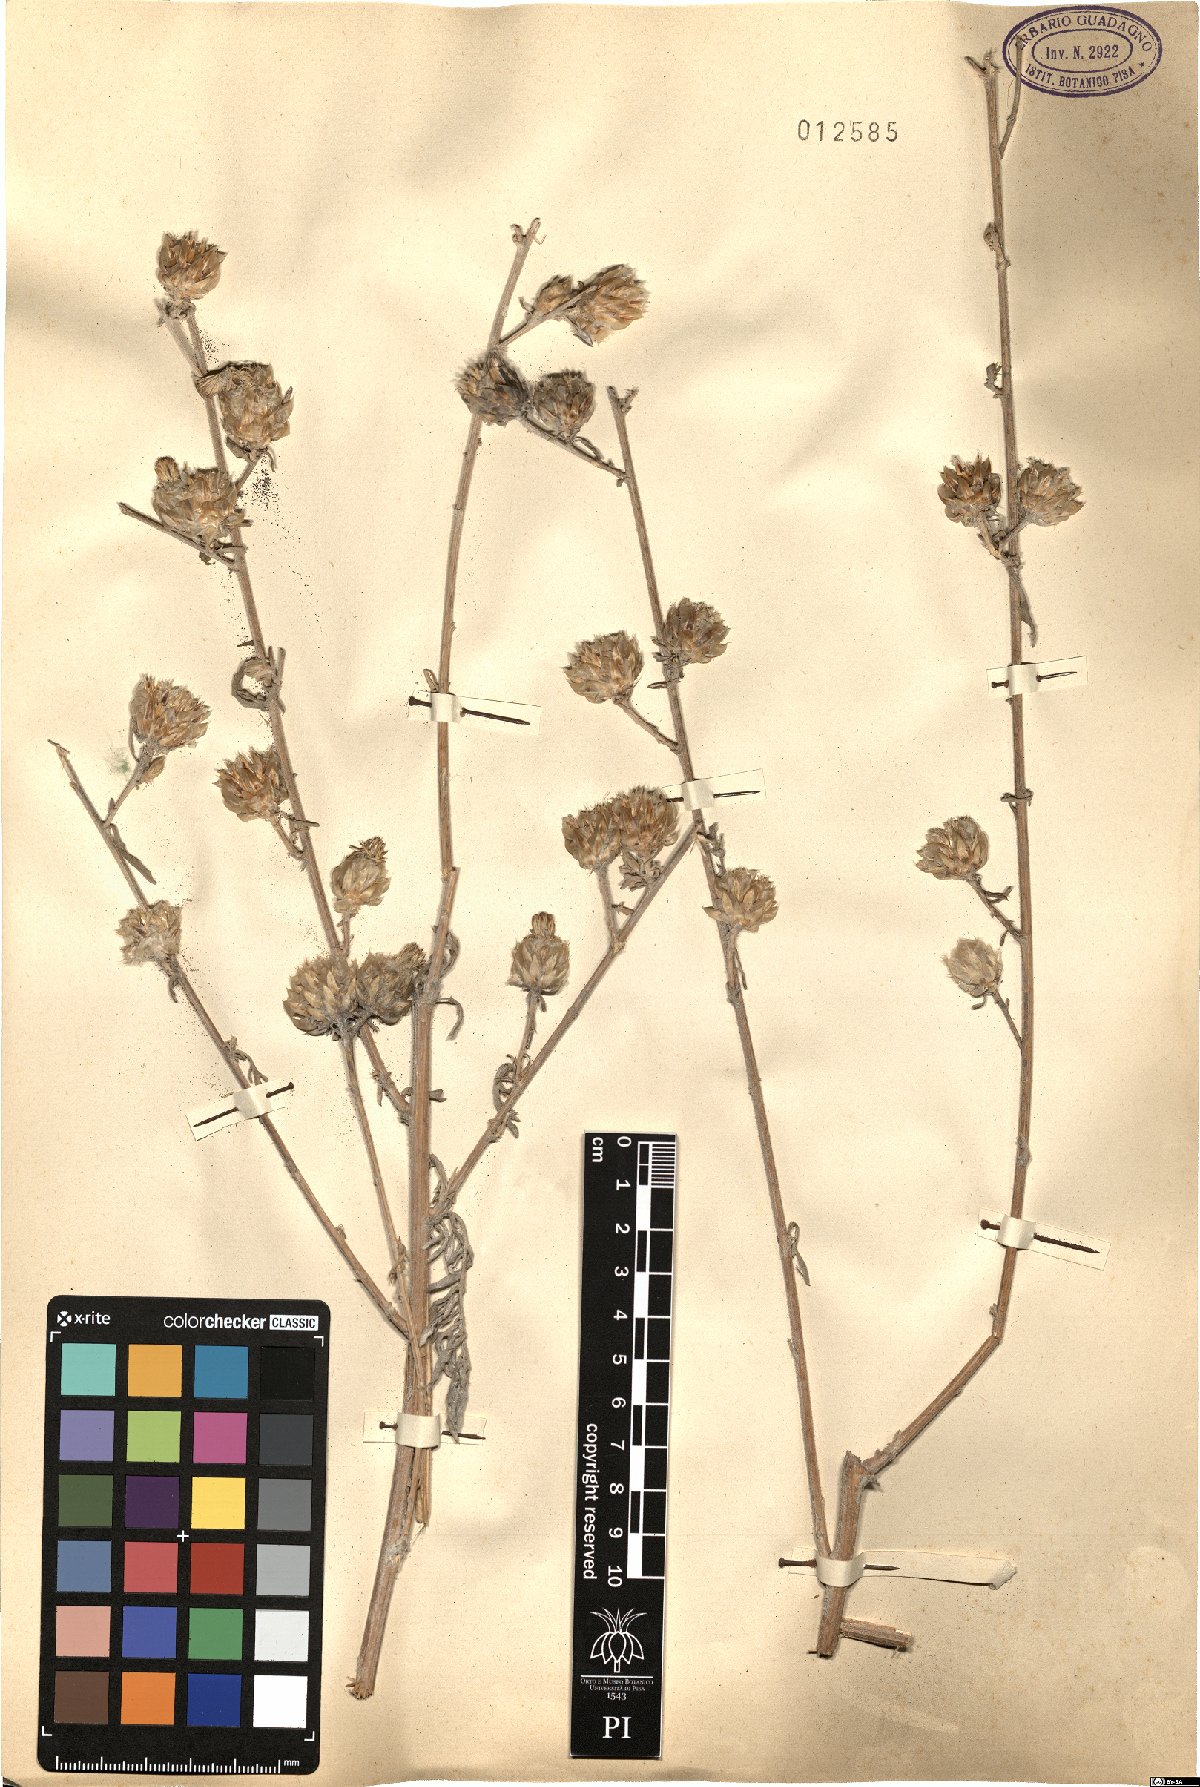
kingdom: Plantae
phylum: Tracheophyta
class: Magnoliopsida
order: Asterales
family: Asteraceae
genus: Centaurea
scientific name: Centaurea
